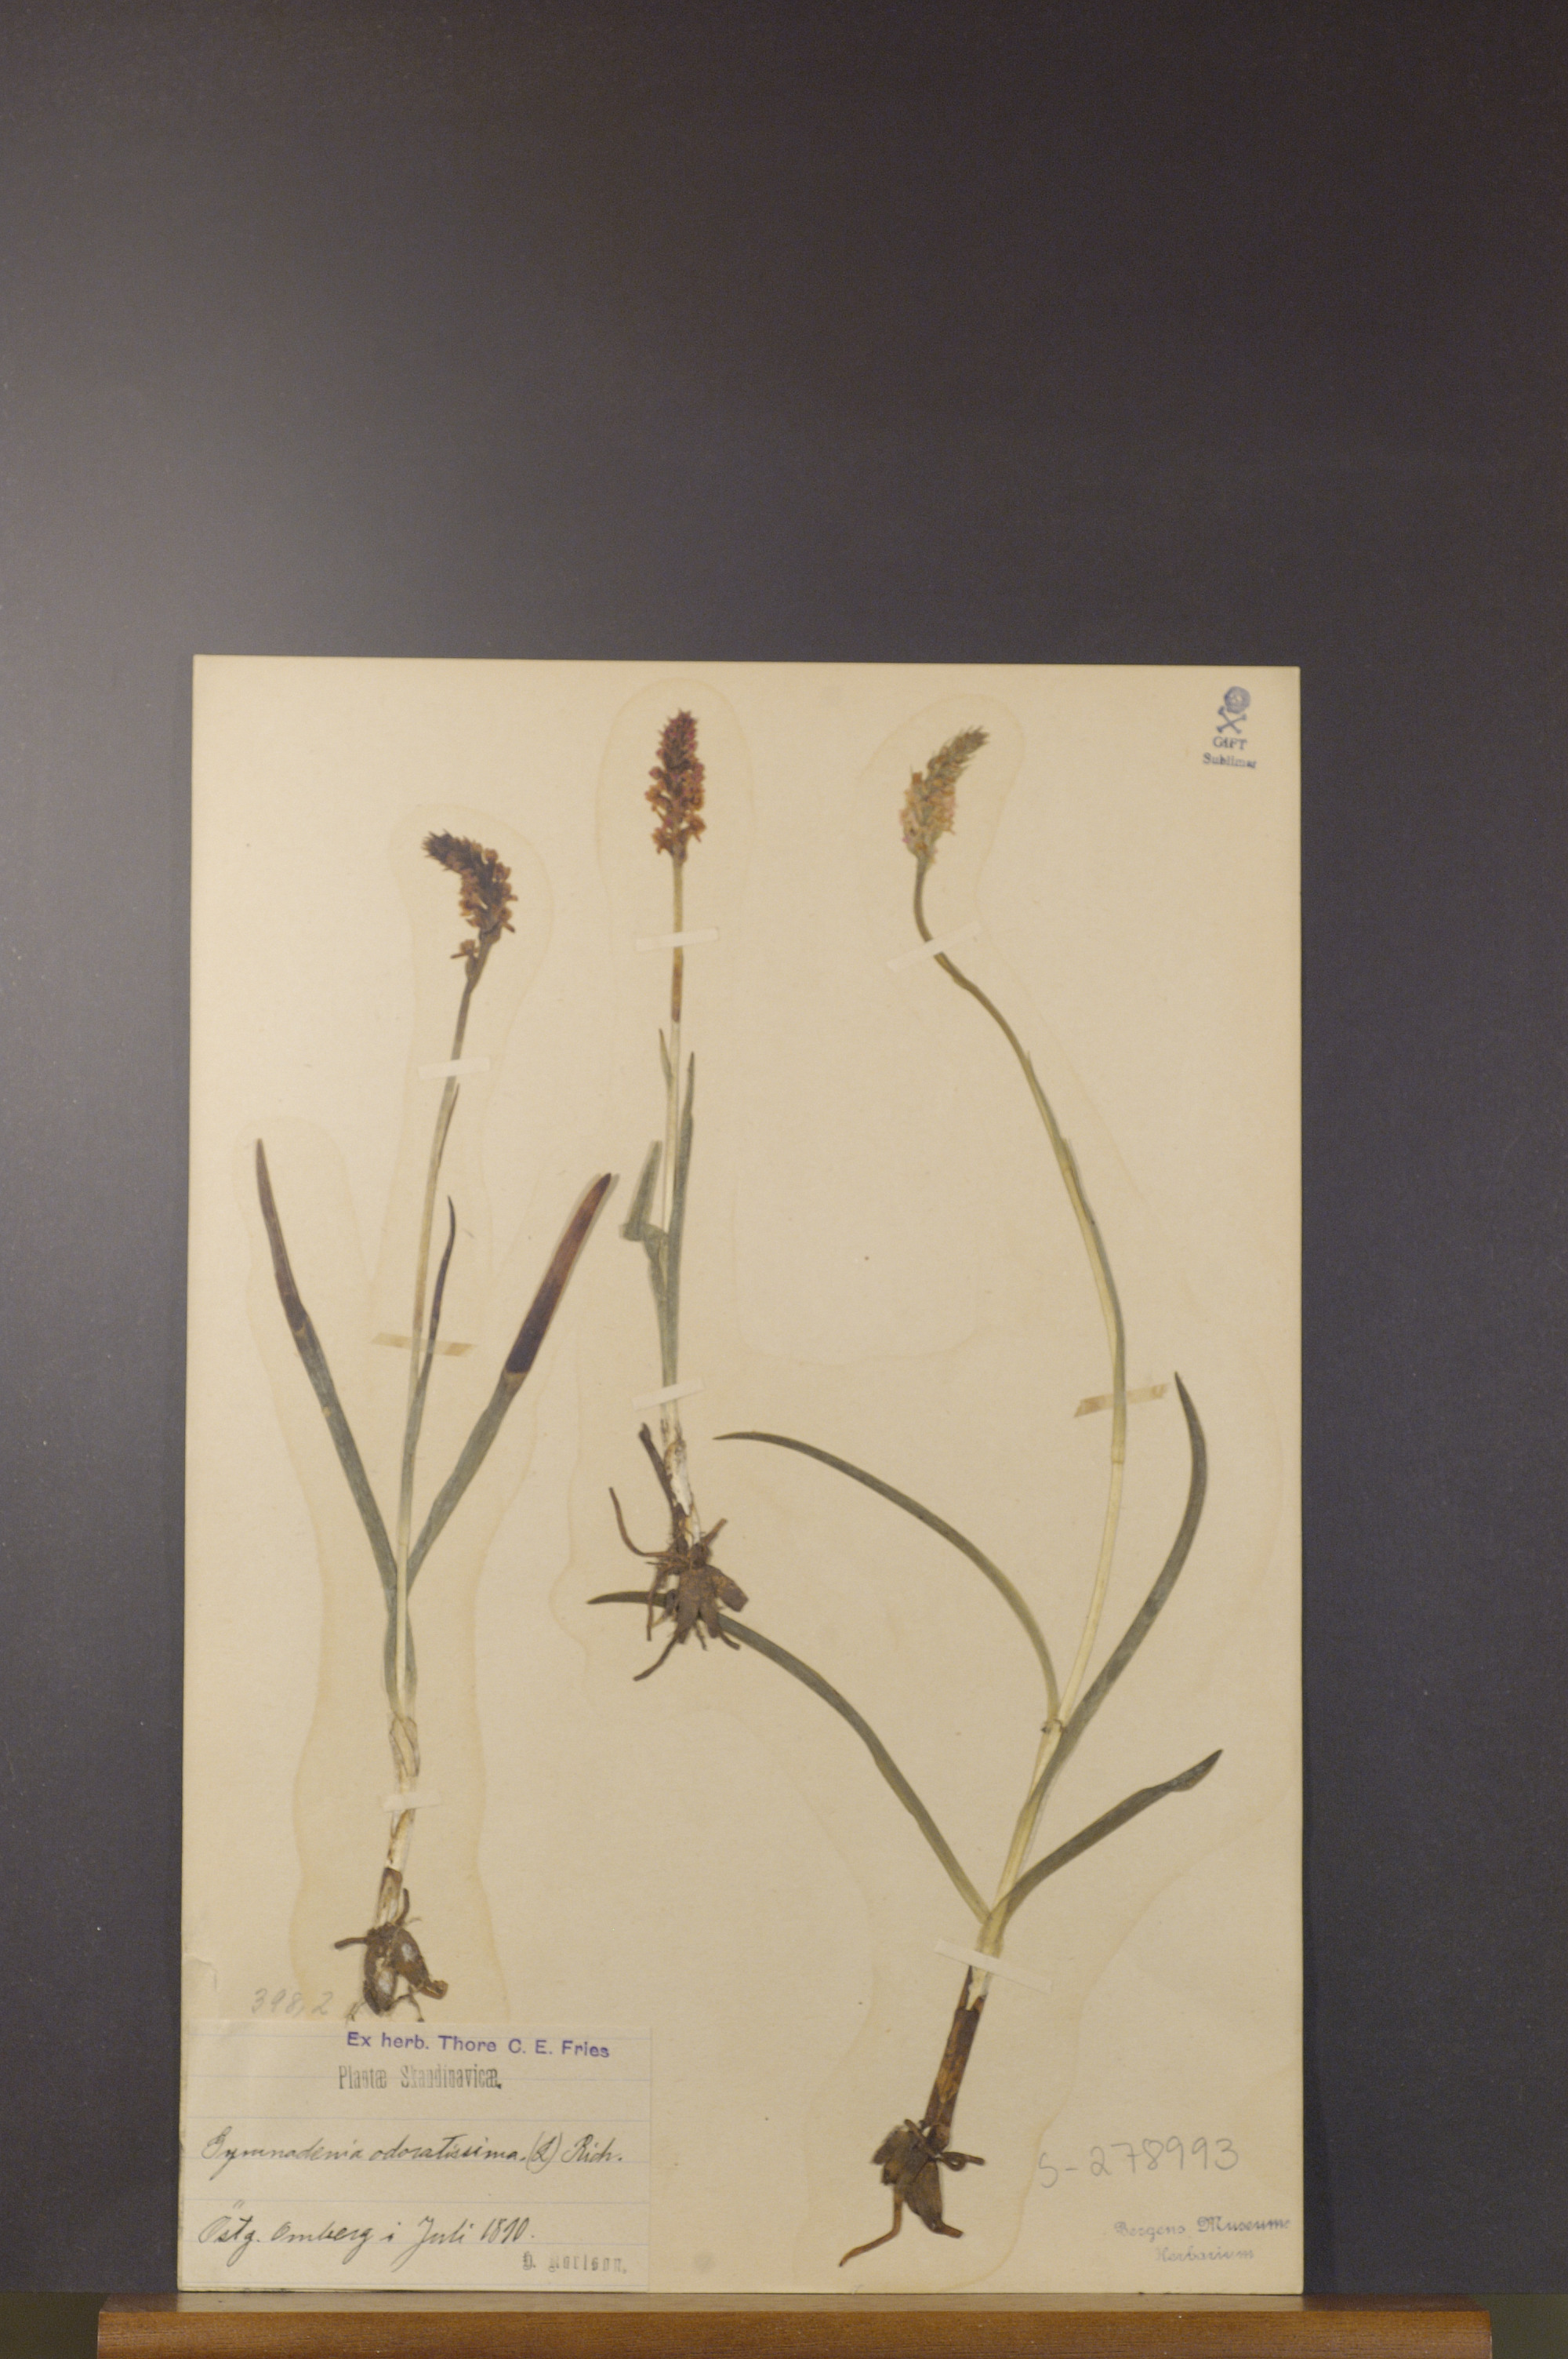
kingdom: Plantae
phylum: Tracheophyta
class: Liliopsida
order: Asparagales
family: Orchidaceae
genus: Gymnadenia
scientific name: Gymnadenia odoratissima
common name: Scented gymnadenia
